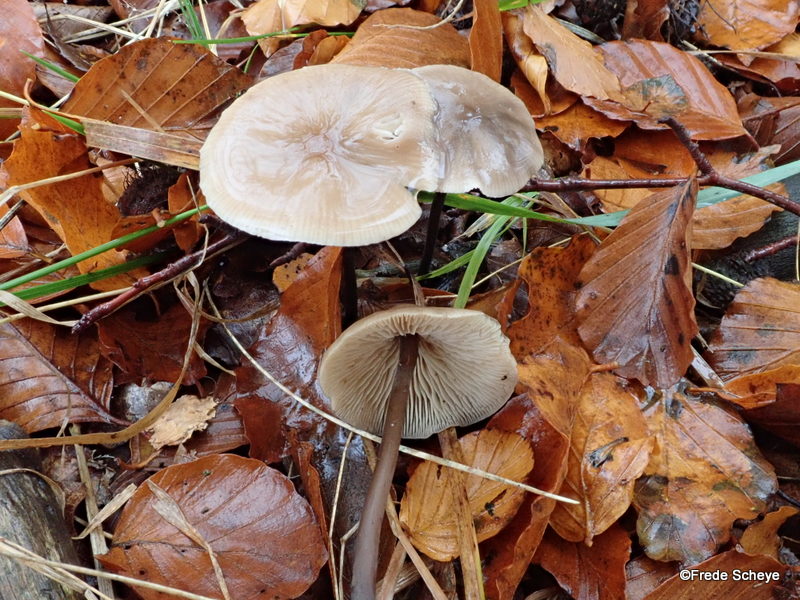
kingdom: Fungi
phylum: Basidiomycota
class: Agaricomycetes
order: Agaricales
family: Omphalotaceae
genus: Mycetinis
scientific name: Mycetinis alliaceus
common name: stor løghat
